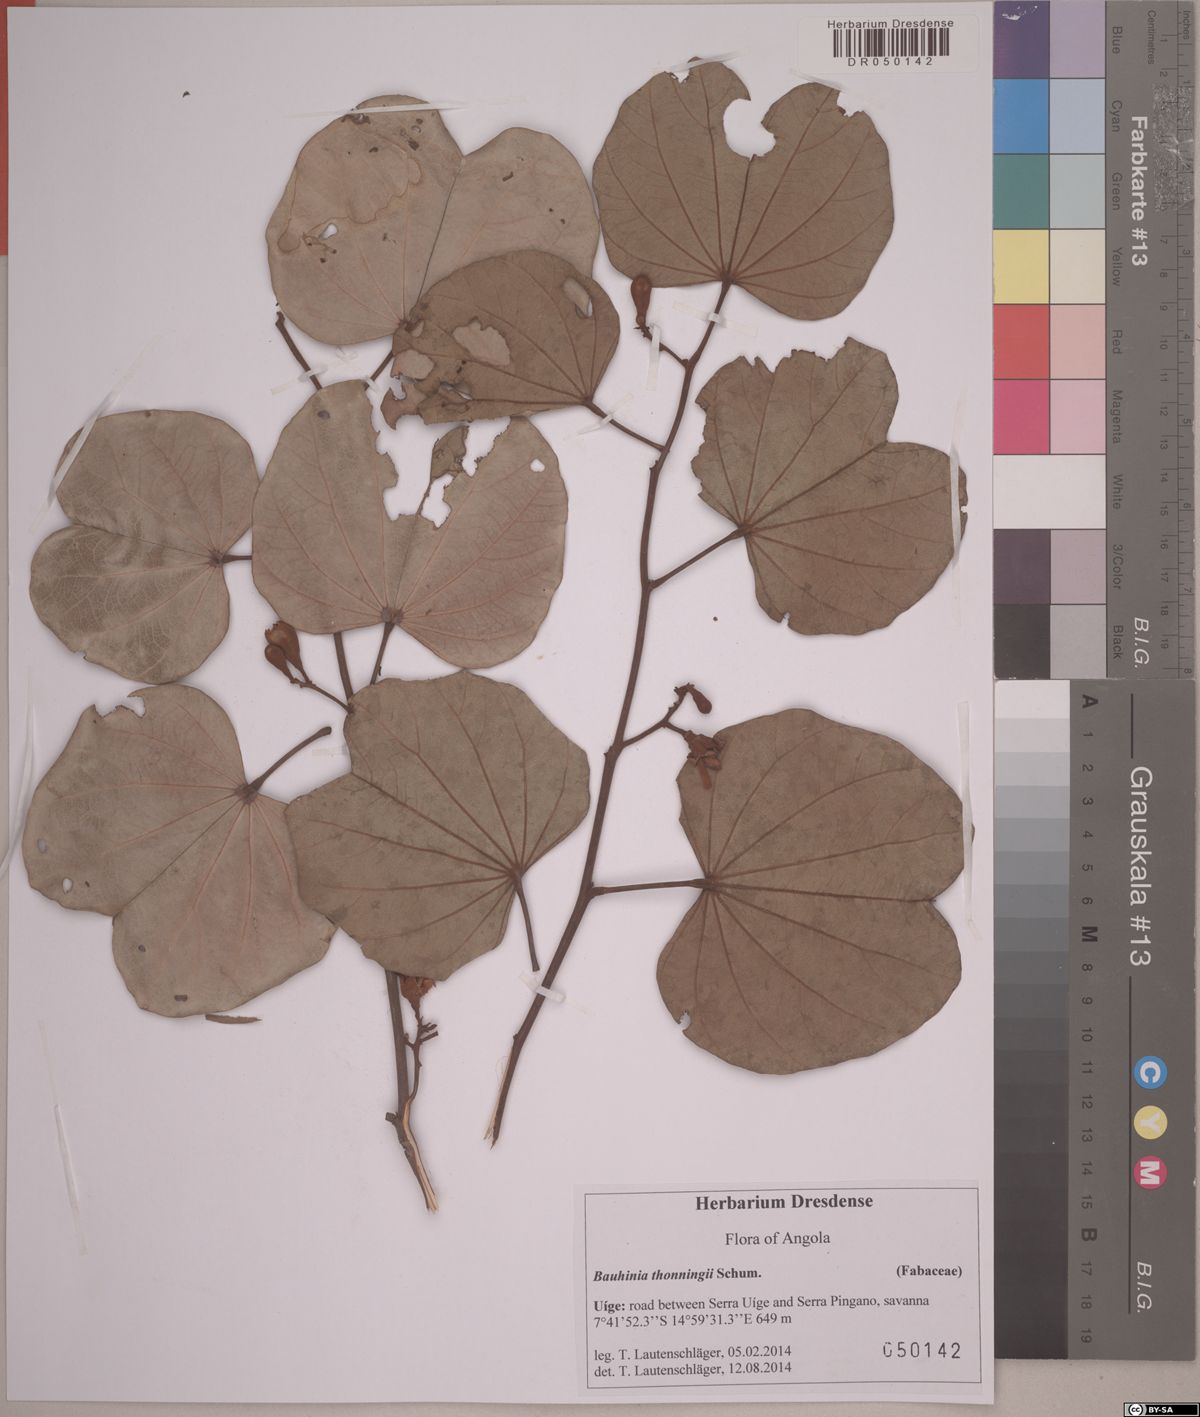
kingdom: Plantae
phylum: Tracheophyta
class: Magnoliopsida
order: Fabales
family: Fabaceae
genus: Piliostigma
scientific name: Piliostigma thonningii
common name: Kao
